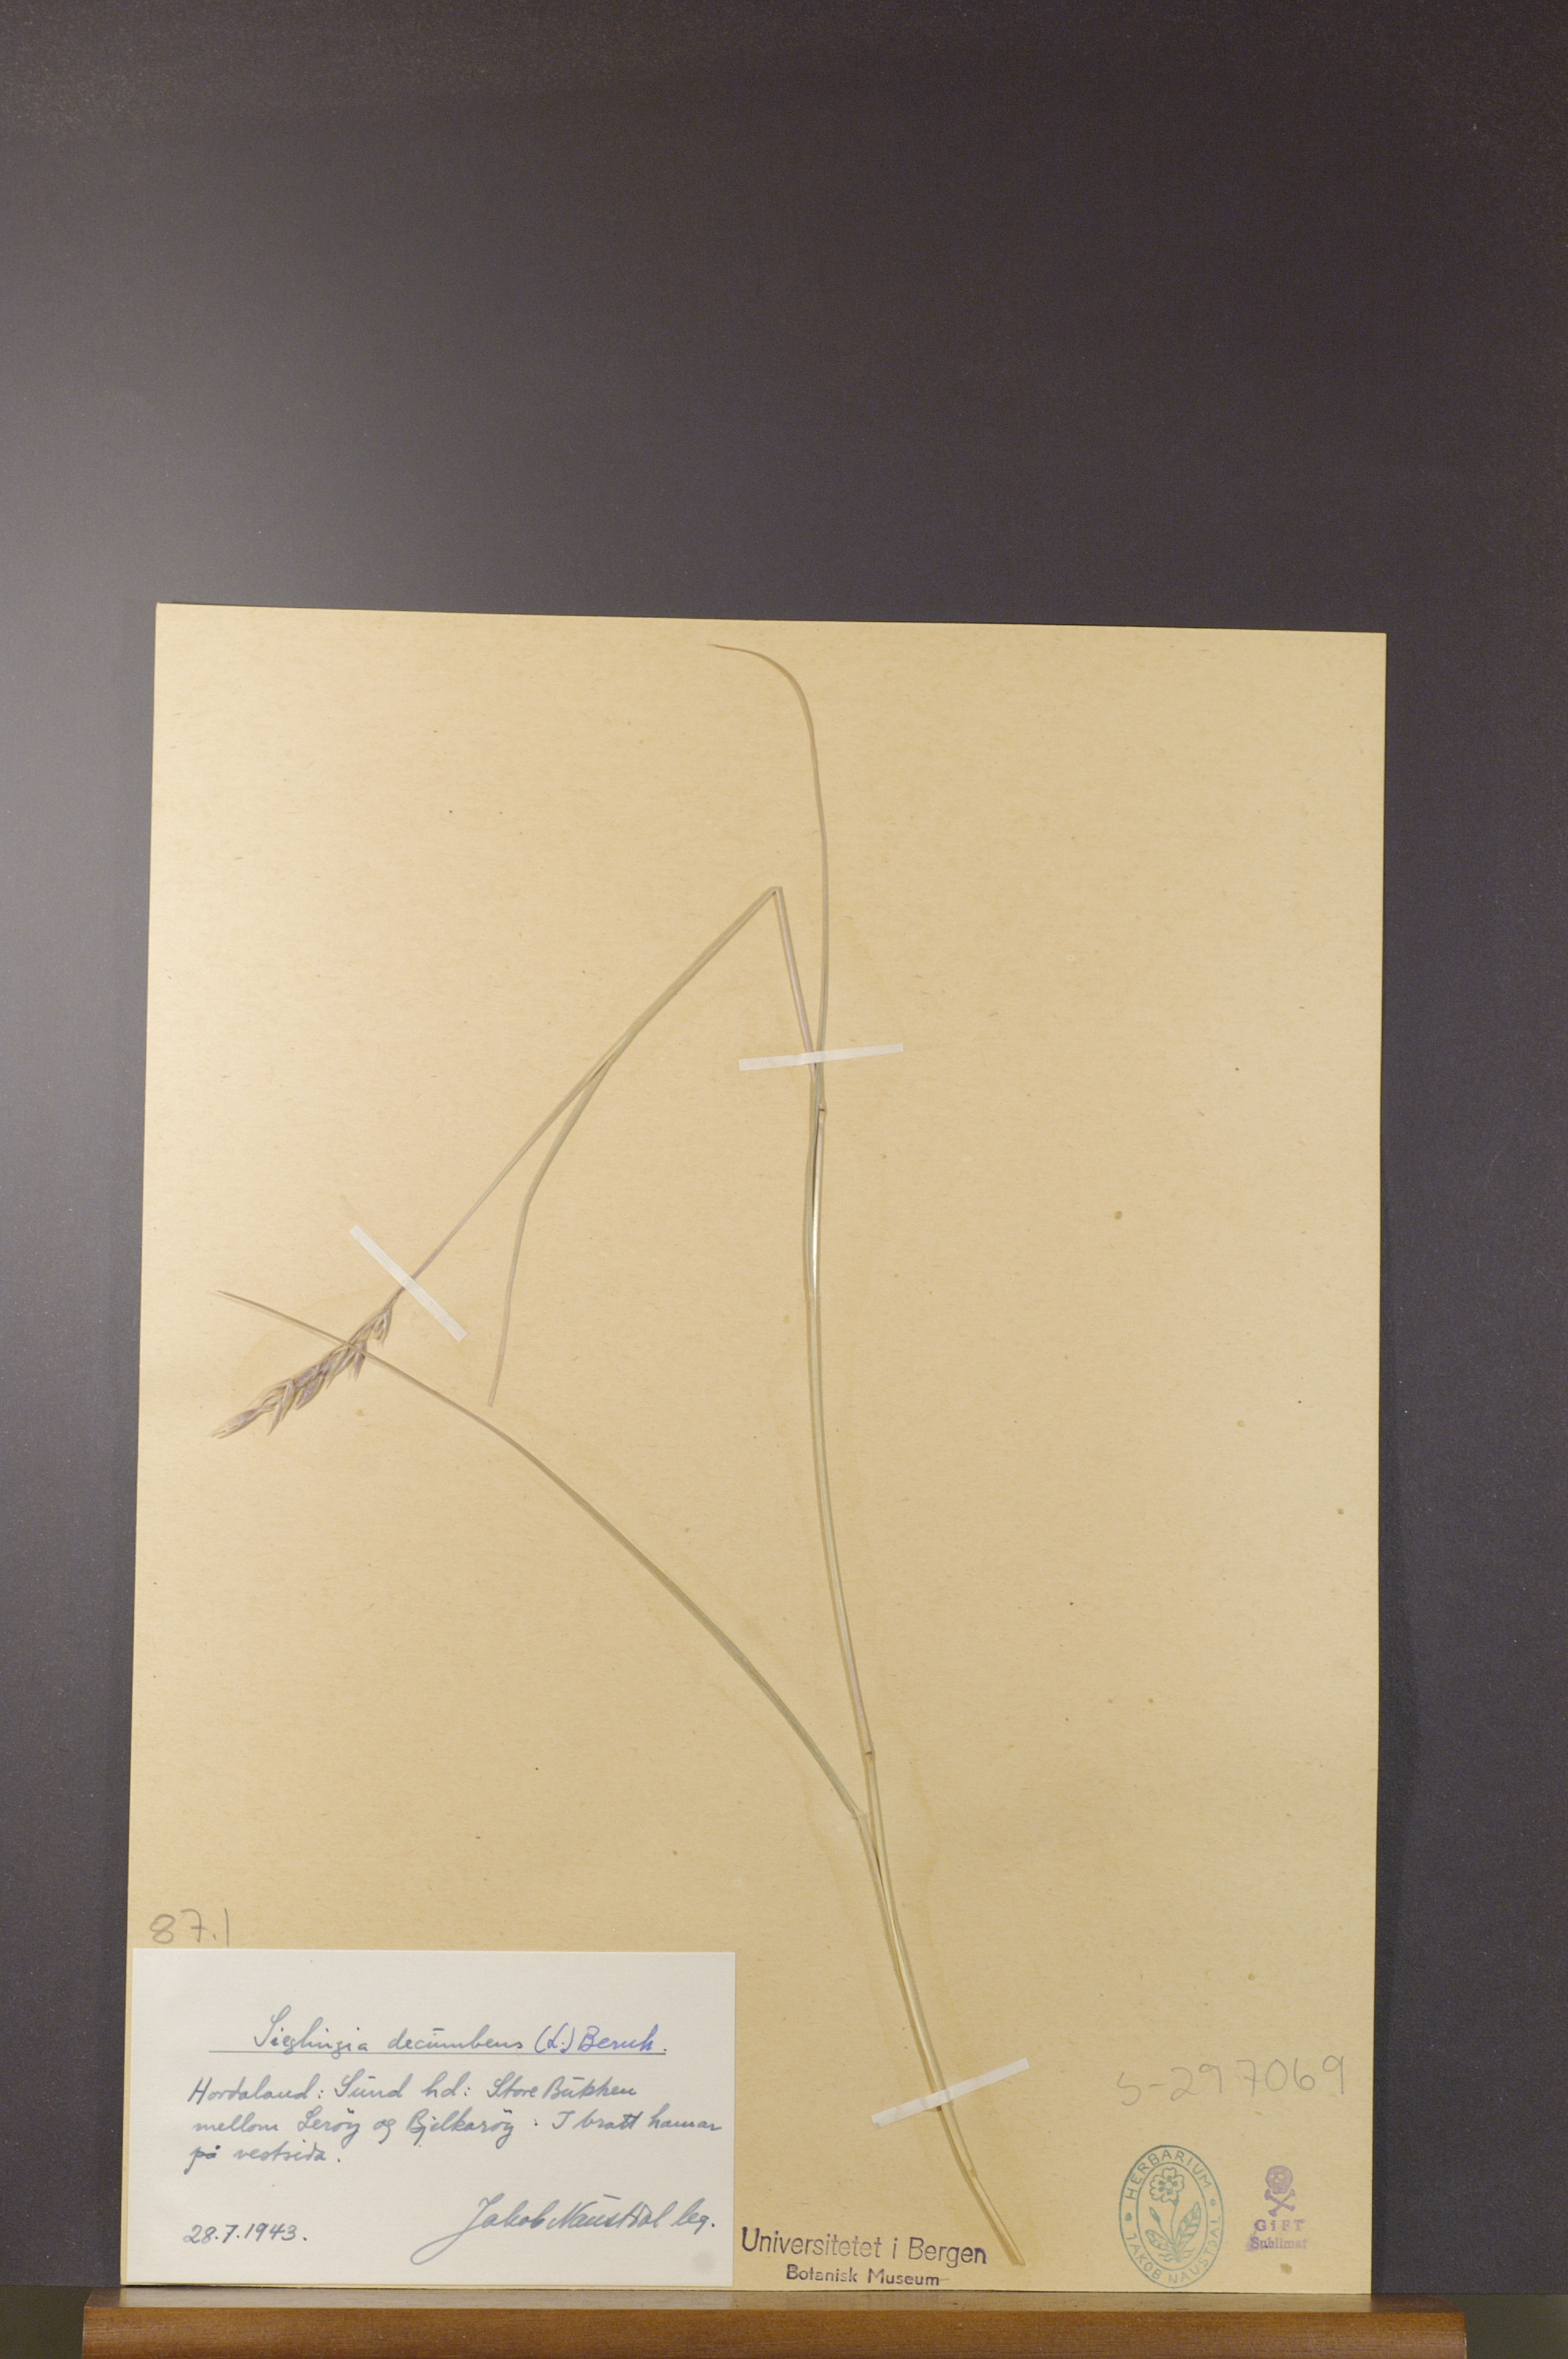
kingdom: Plantae
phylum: Tracheophyta
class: Liliopsida
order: Poales
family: Poaceae
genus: Danthonia
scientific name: Danthonia decumbens
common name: Common heathgrass
